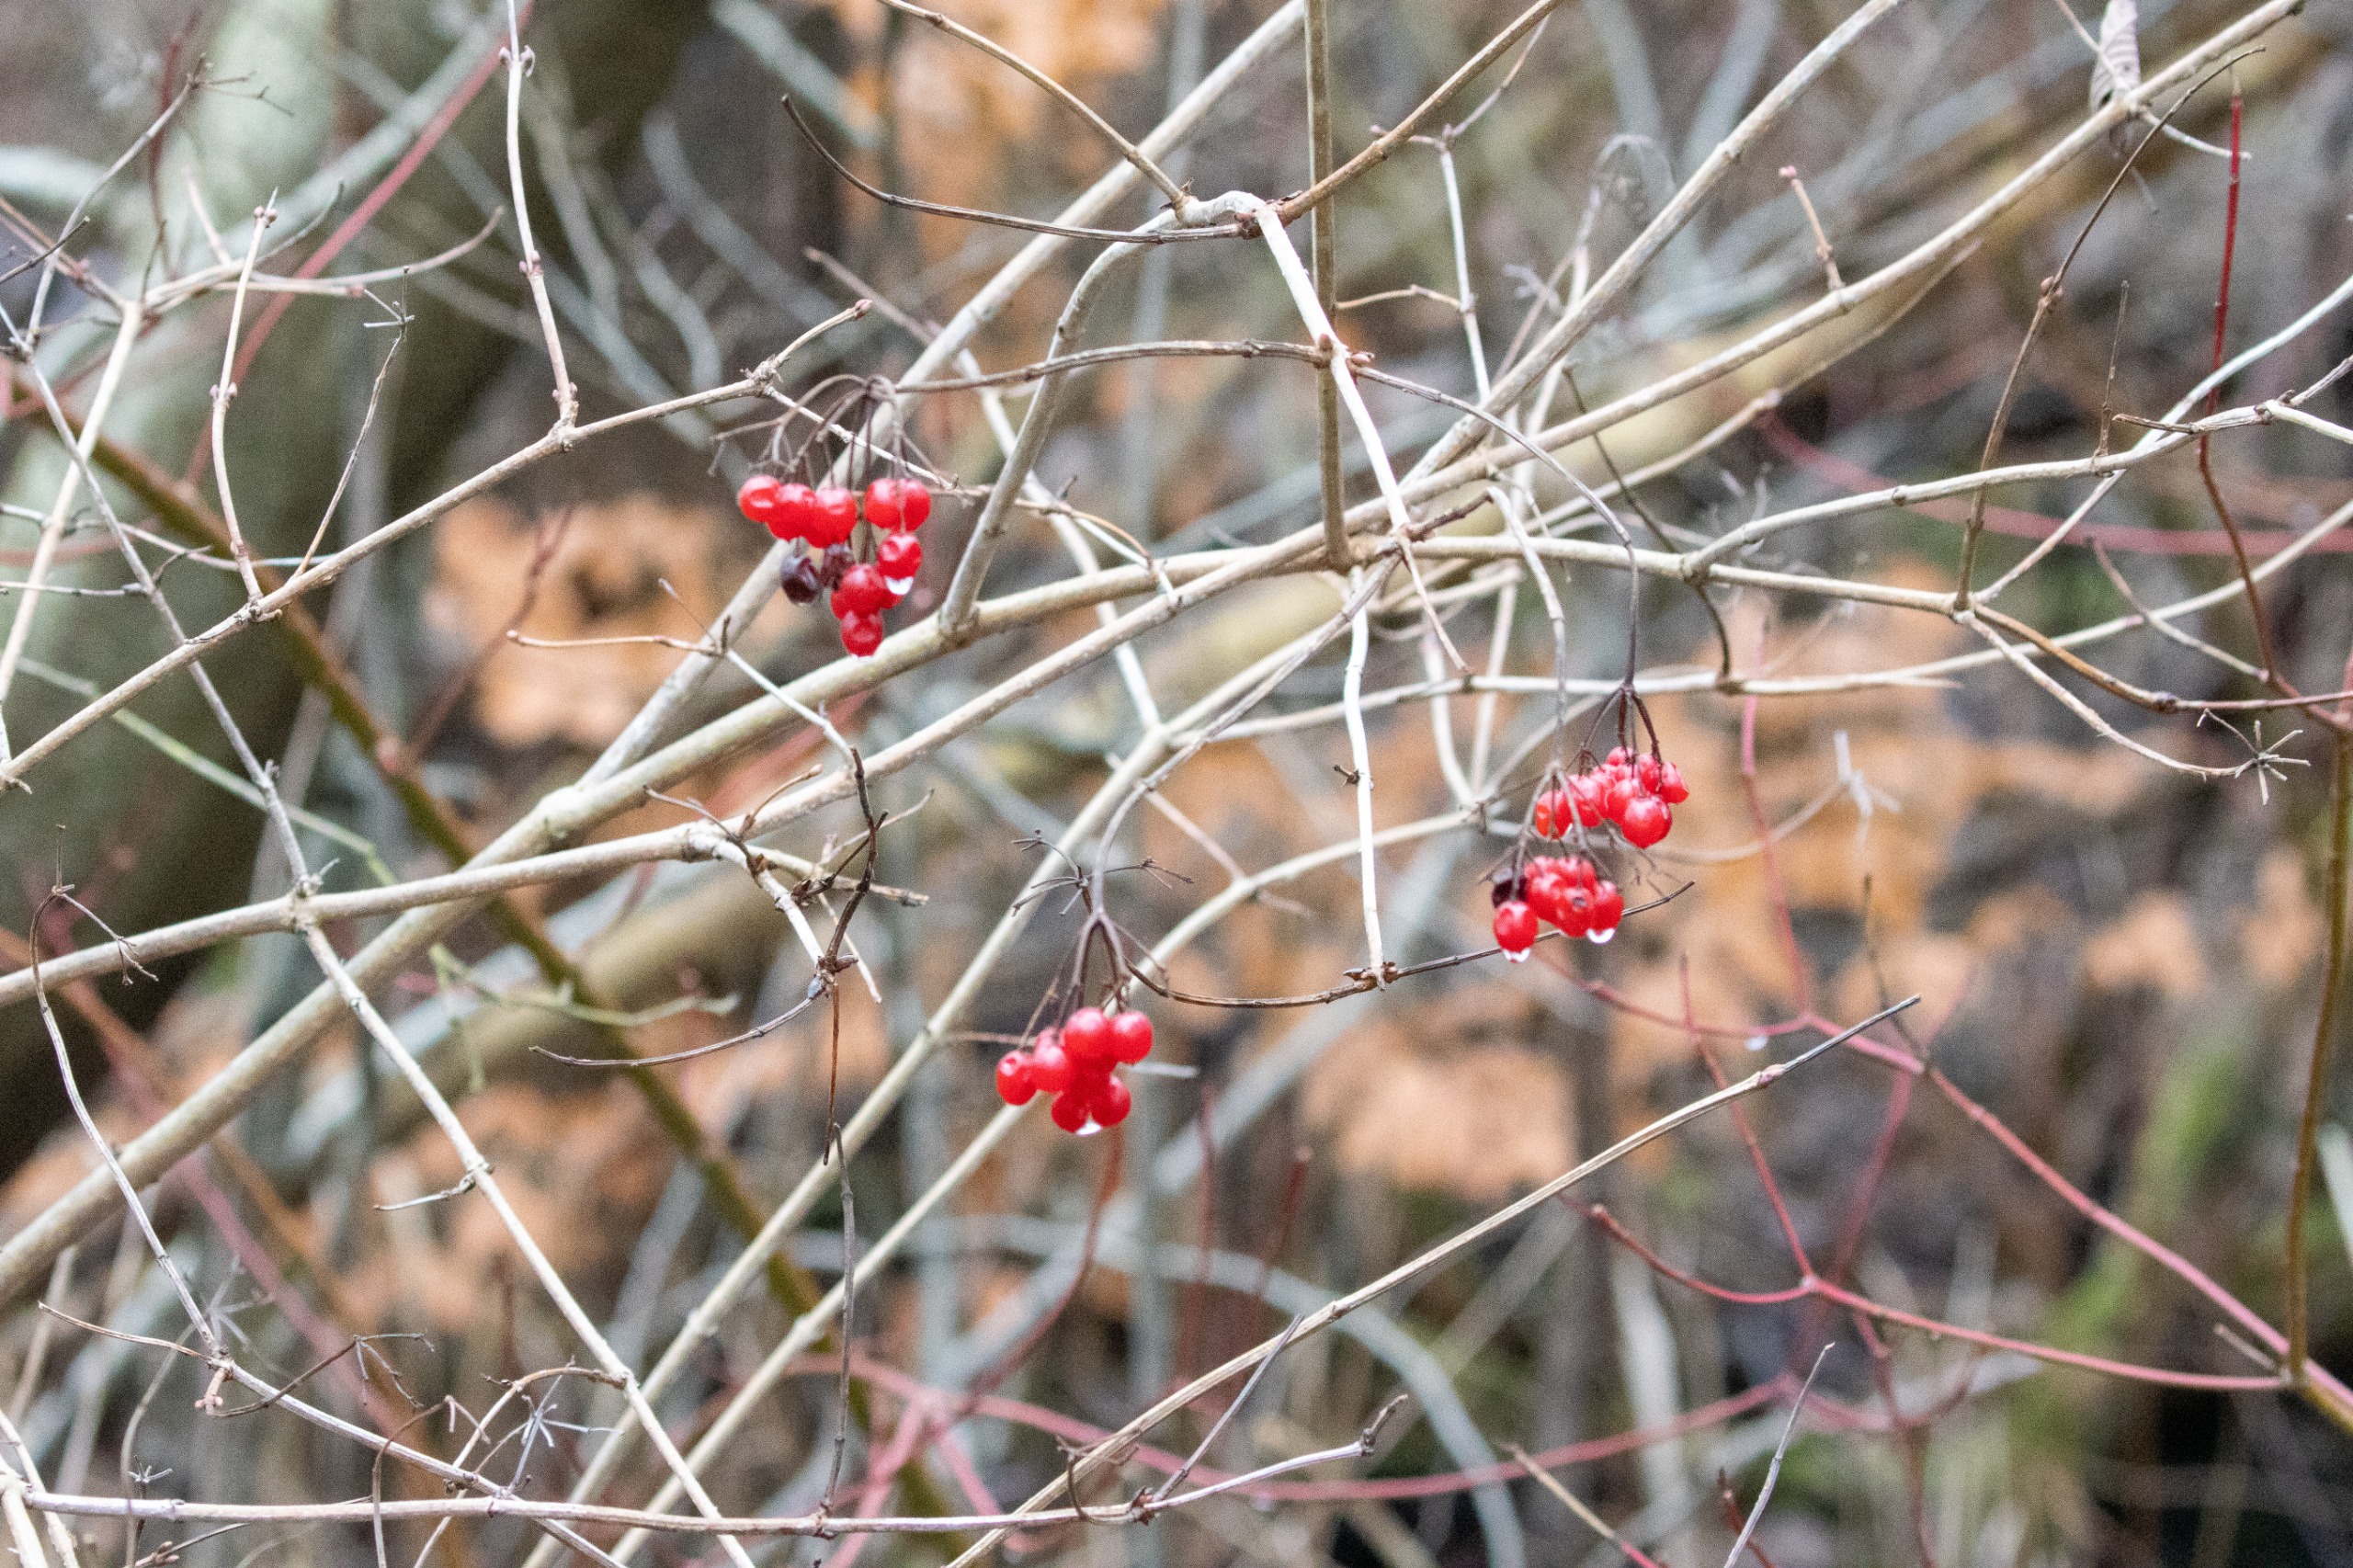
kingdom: Plantae
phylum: Tracheophyta
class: Magnoliopsida
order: Dipsacales
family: Viburnaceae
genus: Viburnum
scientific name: Viburnum opulus
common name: Kvalkved
